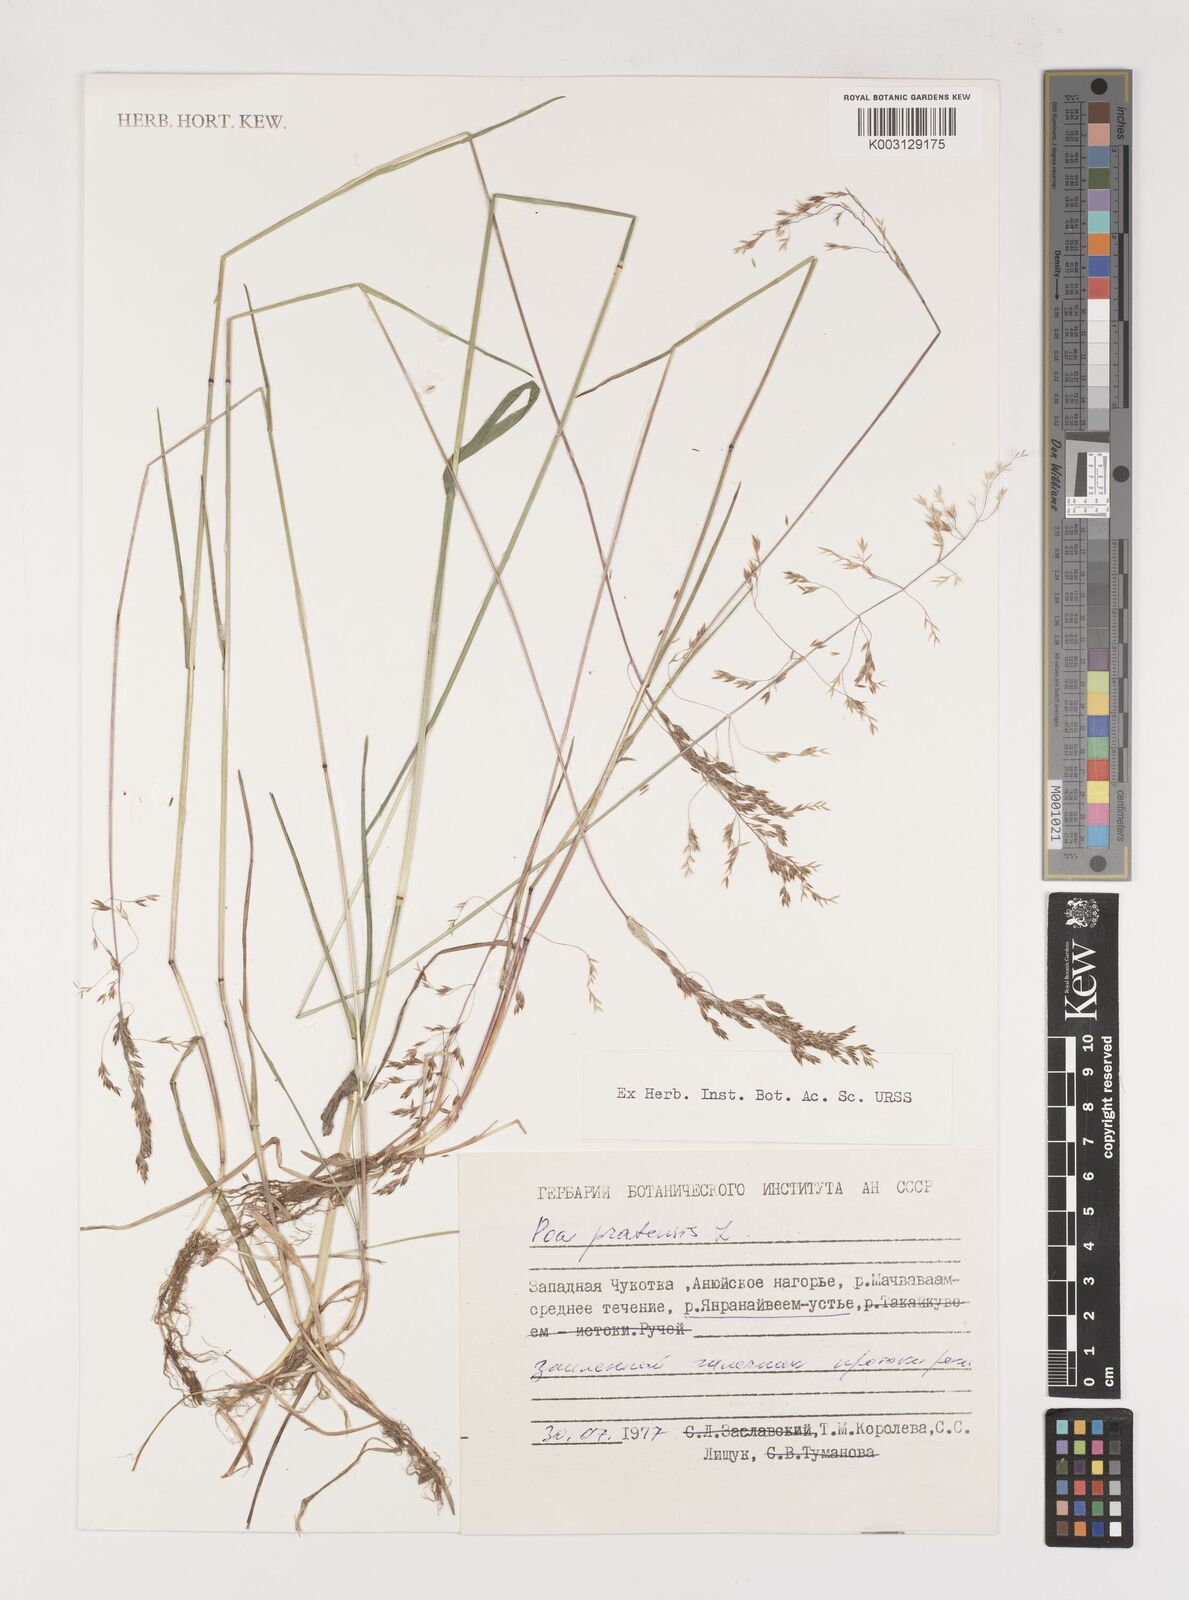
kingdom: Plantae
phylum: Tracheophyta
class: Liliopsida
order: Poales
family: Poaceae
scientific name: Poaceae
